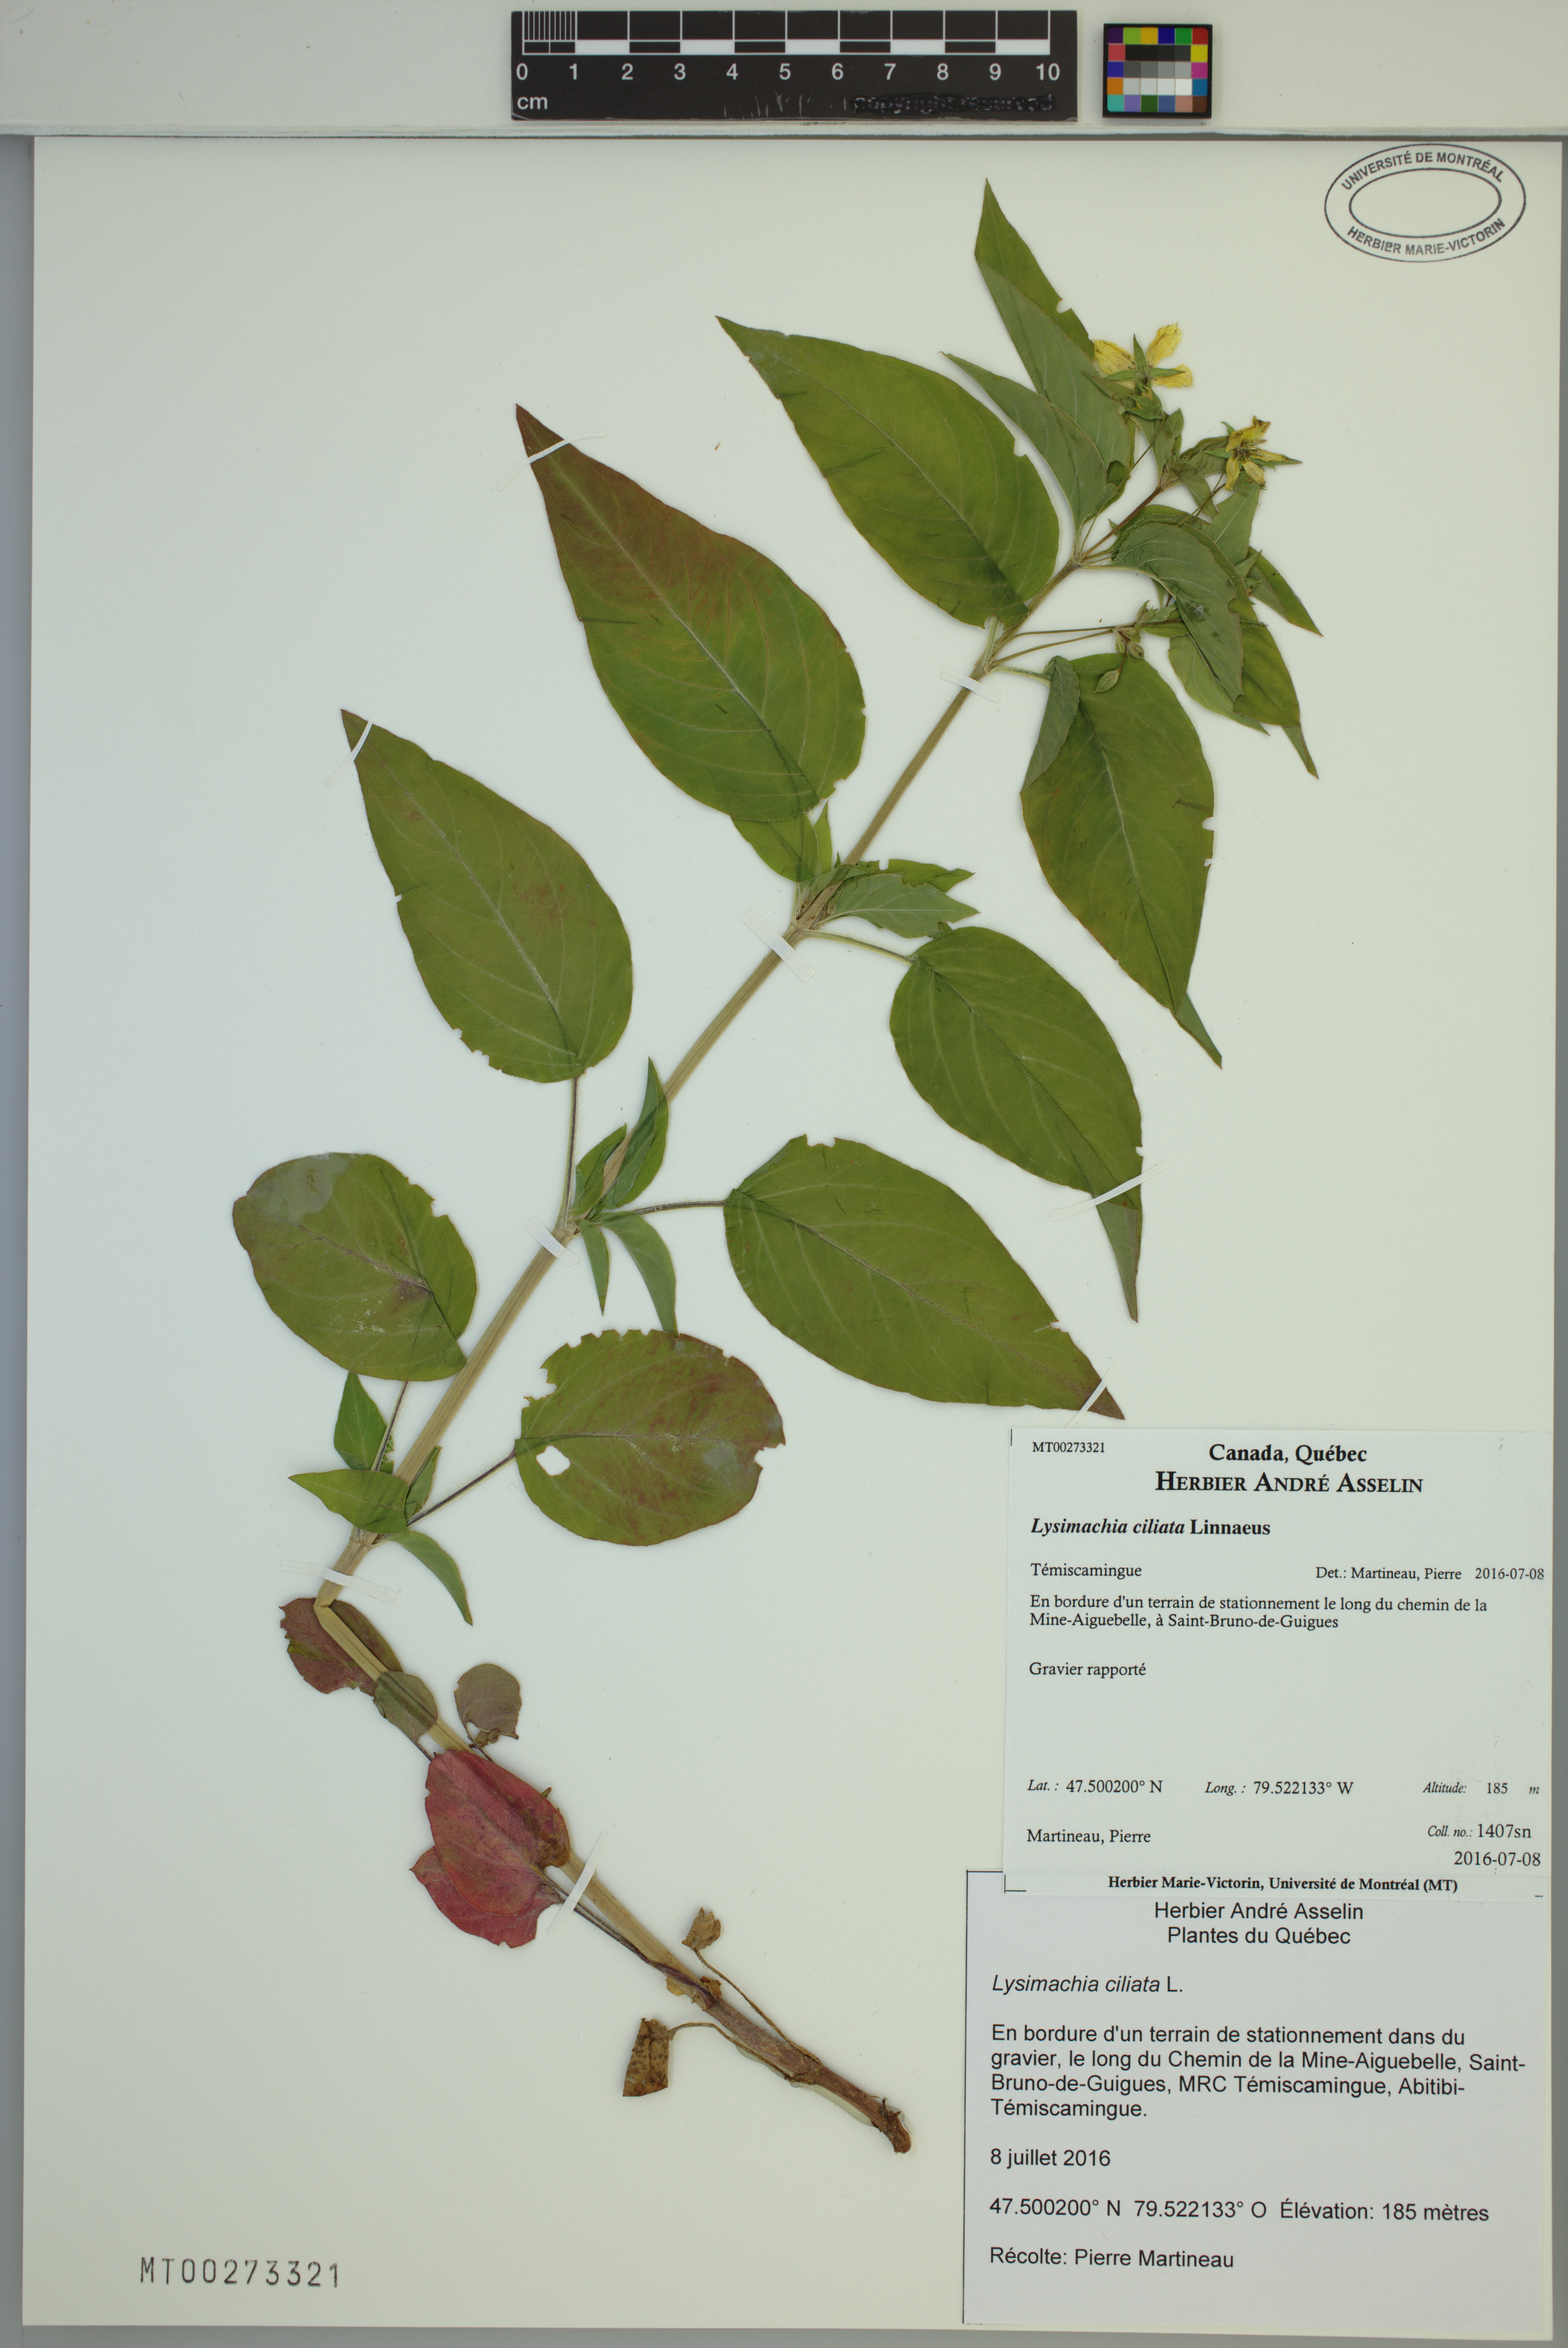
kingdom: Plantae
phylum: Tracheophyta
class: Magnoliopsida
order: Ericales
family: Primulaceae
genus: Lysimachia
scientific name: Lysimachia ciliata
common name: Fringed loosestrife
